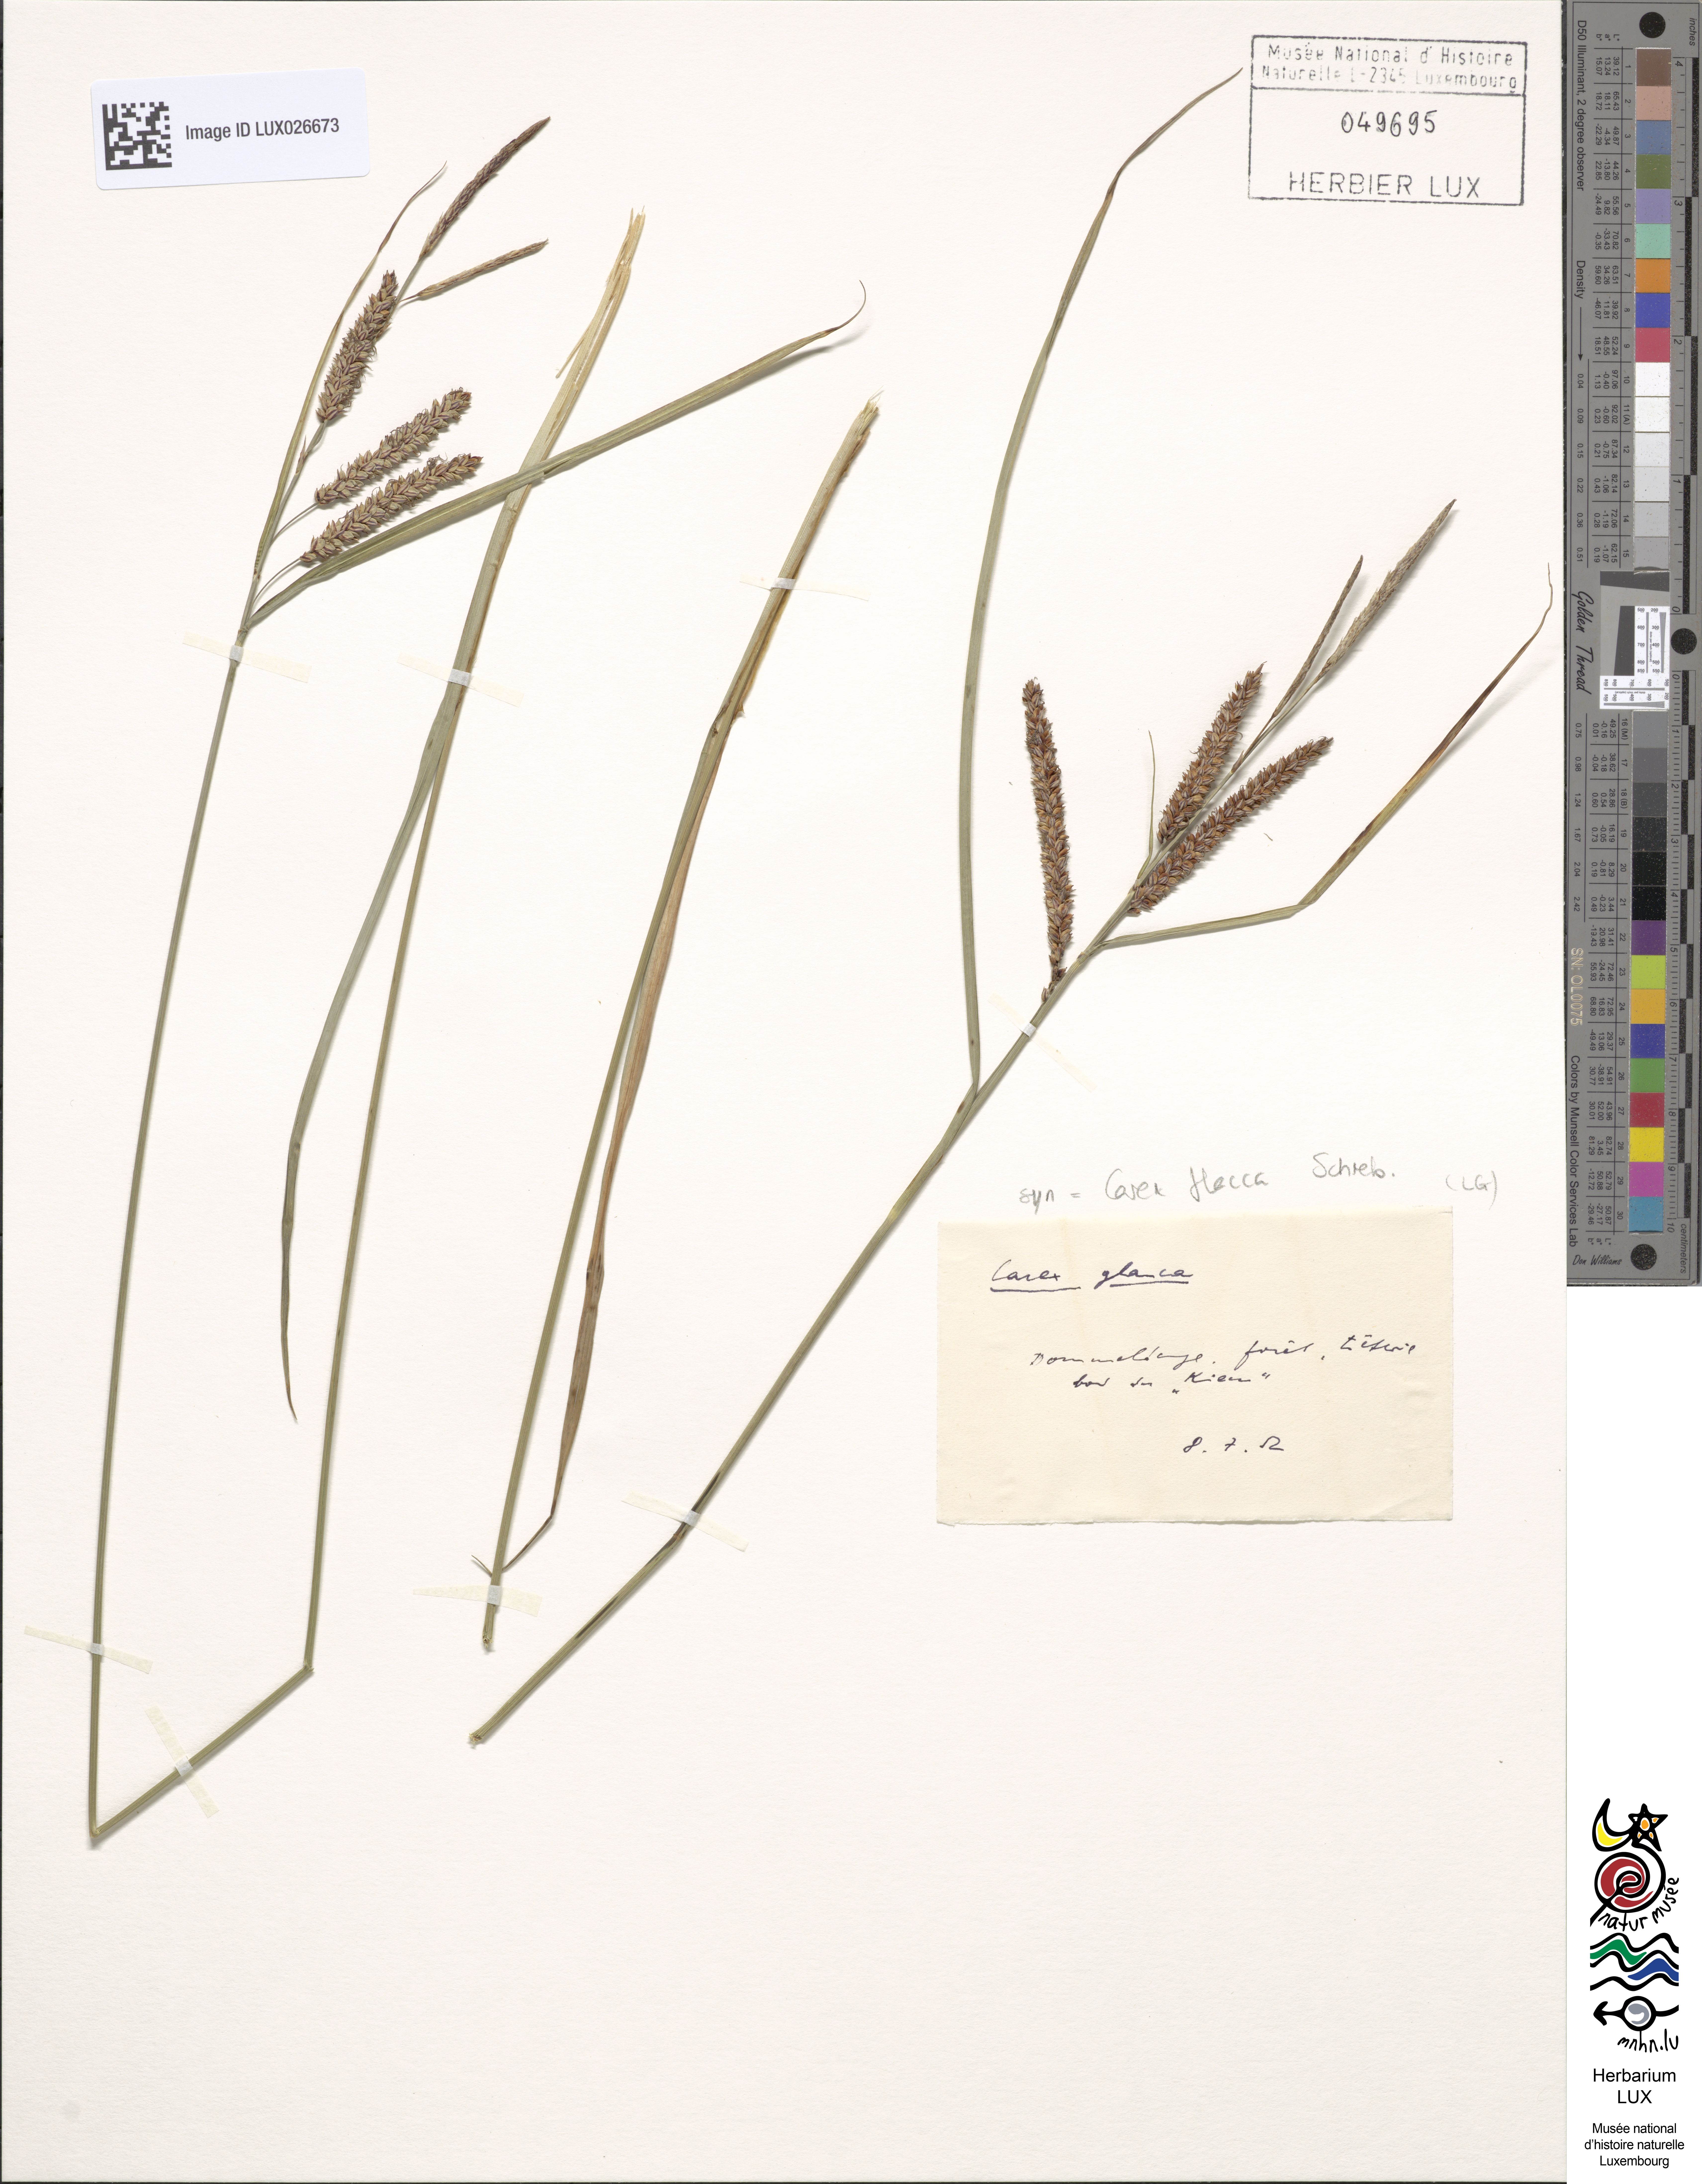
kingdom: Plantae
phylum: Tracheophyta
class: Liliopsida
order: Poales
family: Cyperaceae
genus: Carex
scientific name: Carex flacca
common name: Glaucous sedge
